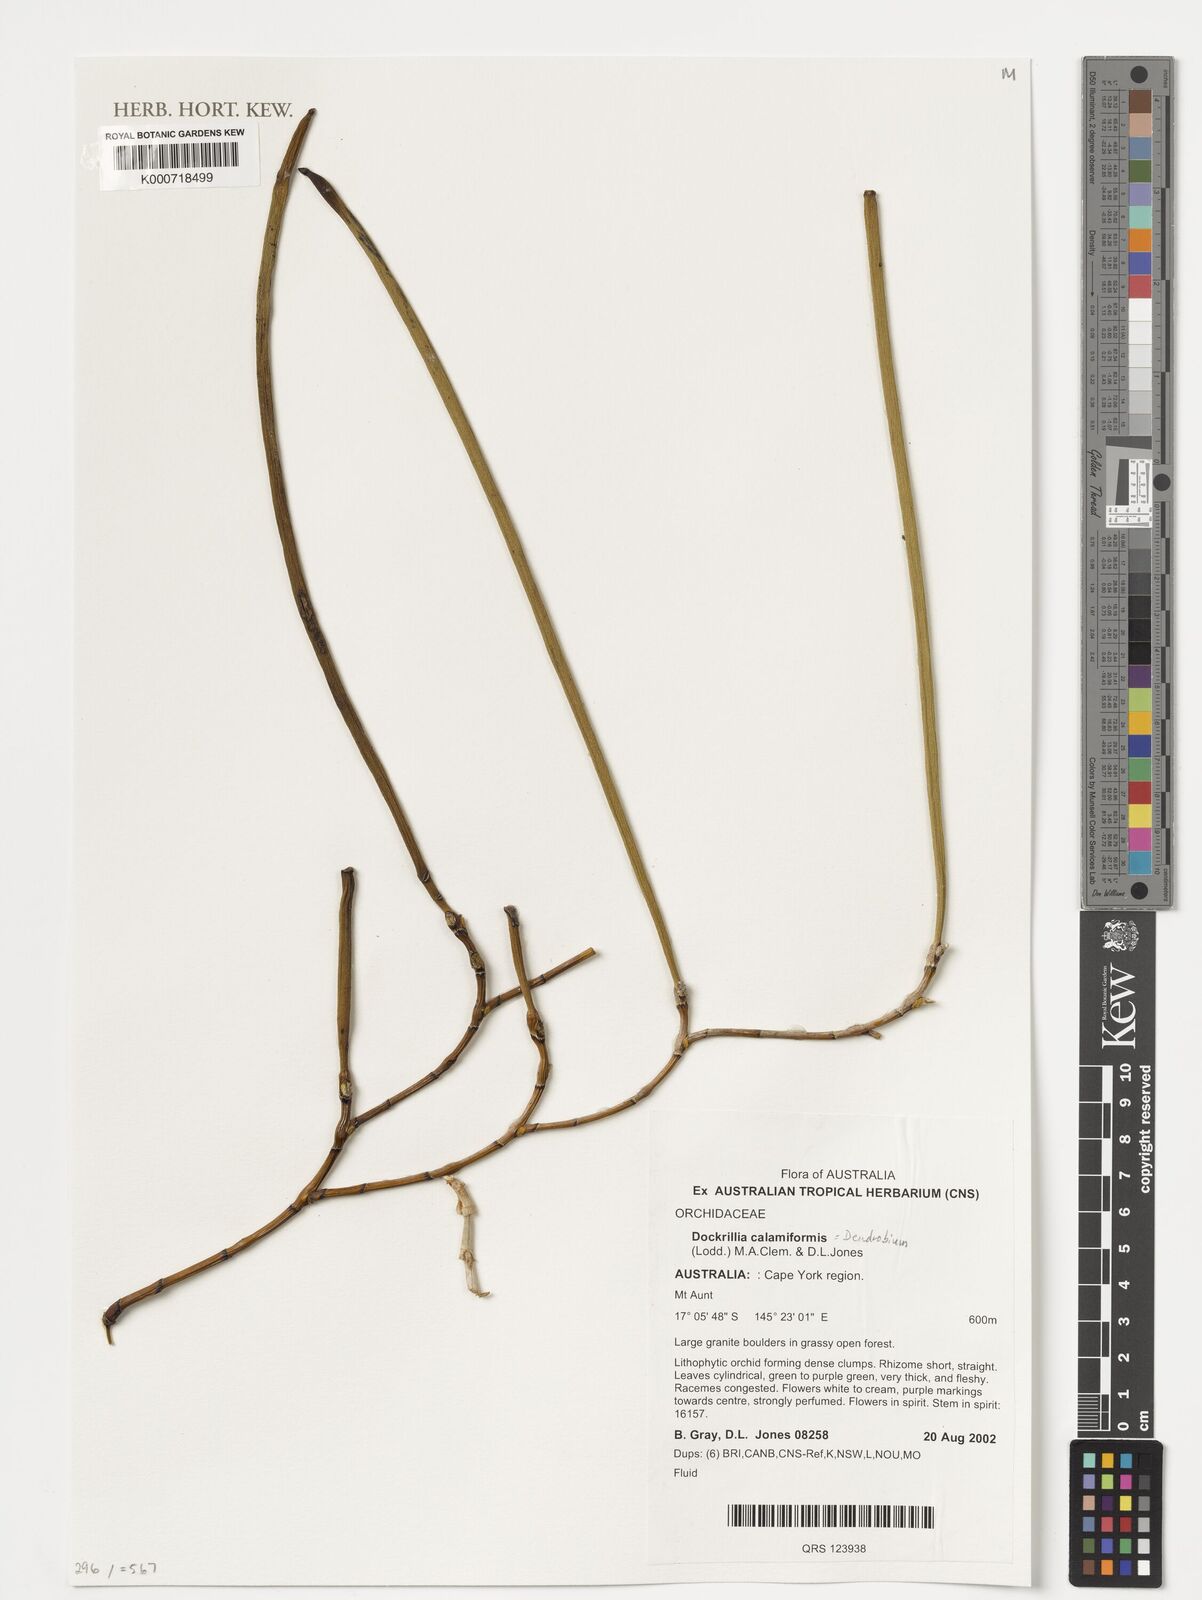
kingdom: Plantae
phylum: Tracheophyta
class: Liliopsida
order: Asparagales
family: Orchidaceae
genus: Dendrobium
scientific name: Dendrobium teretifolium
